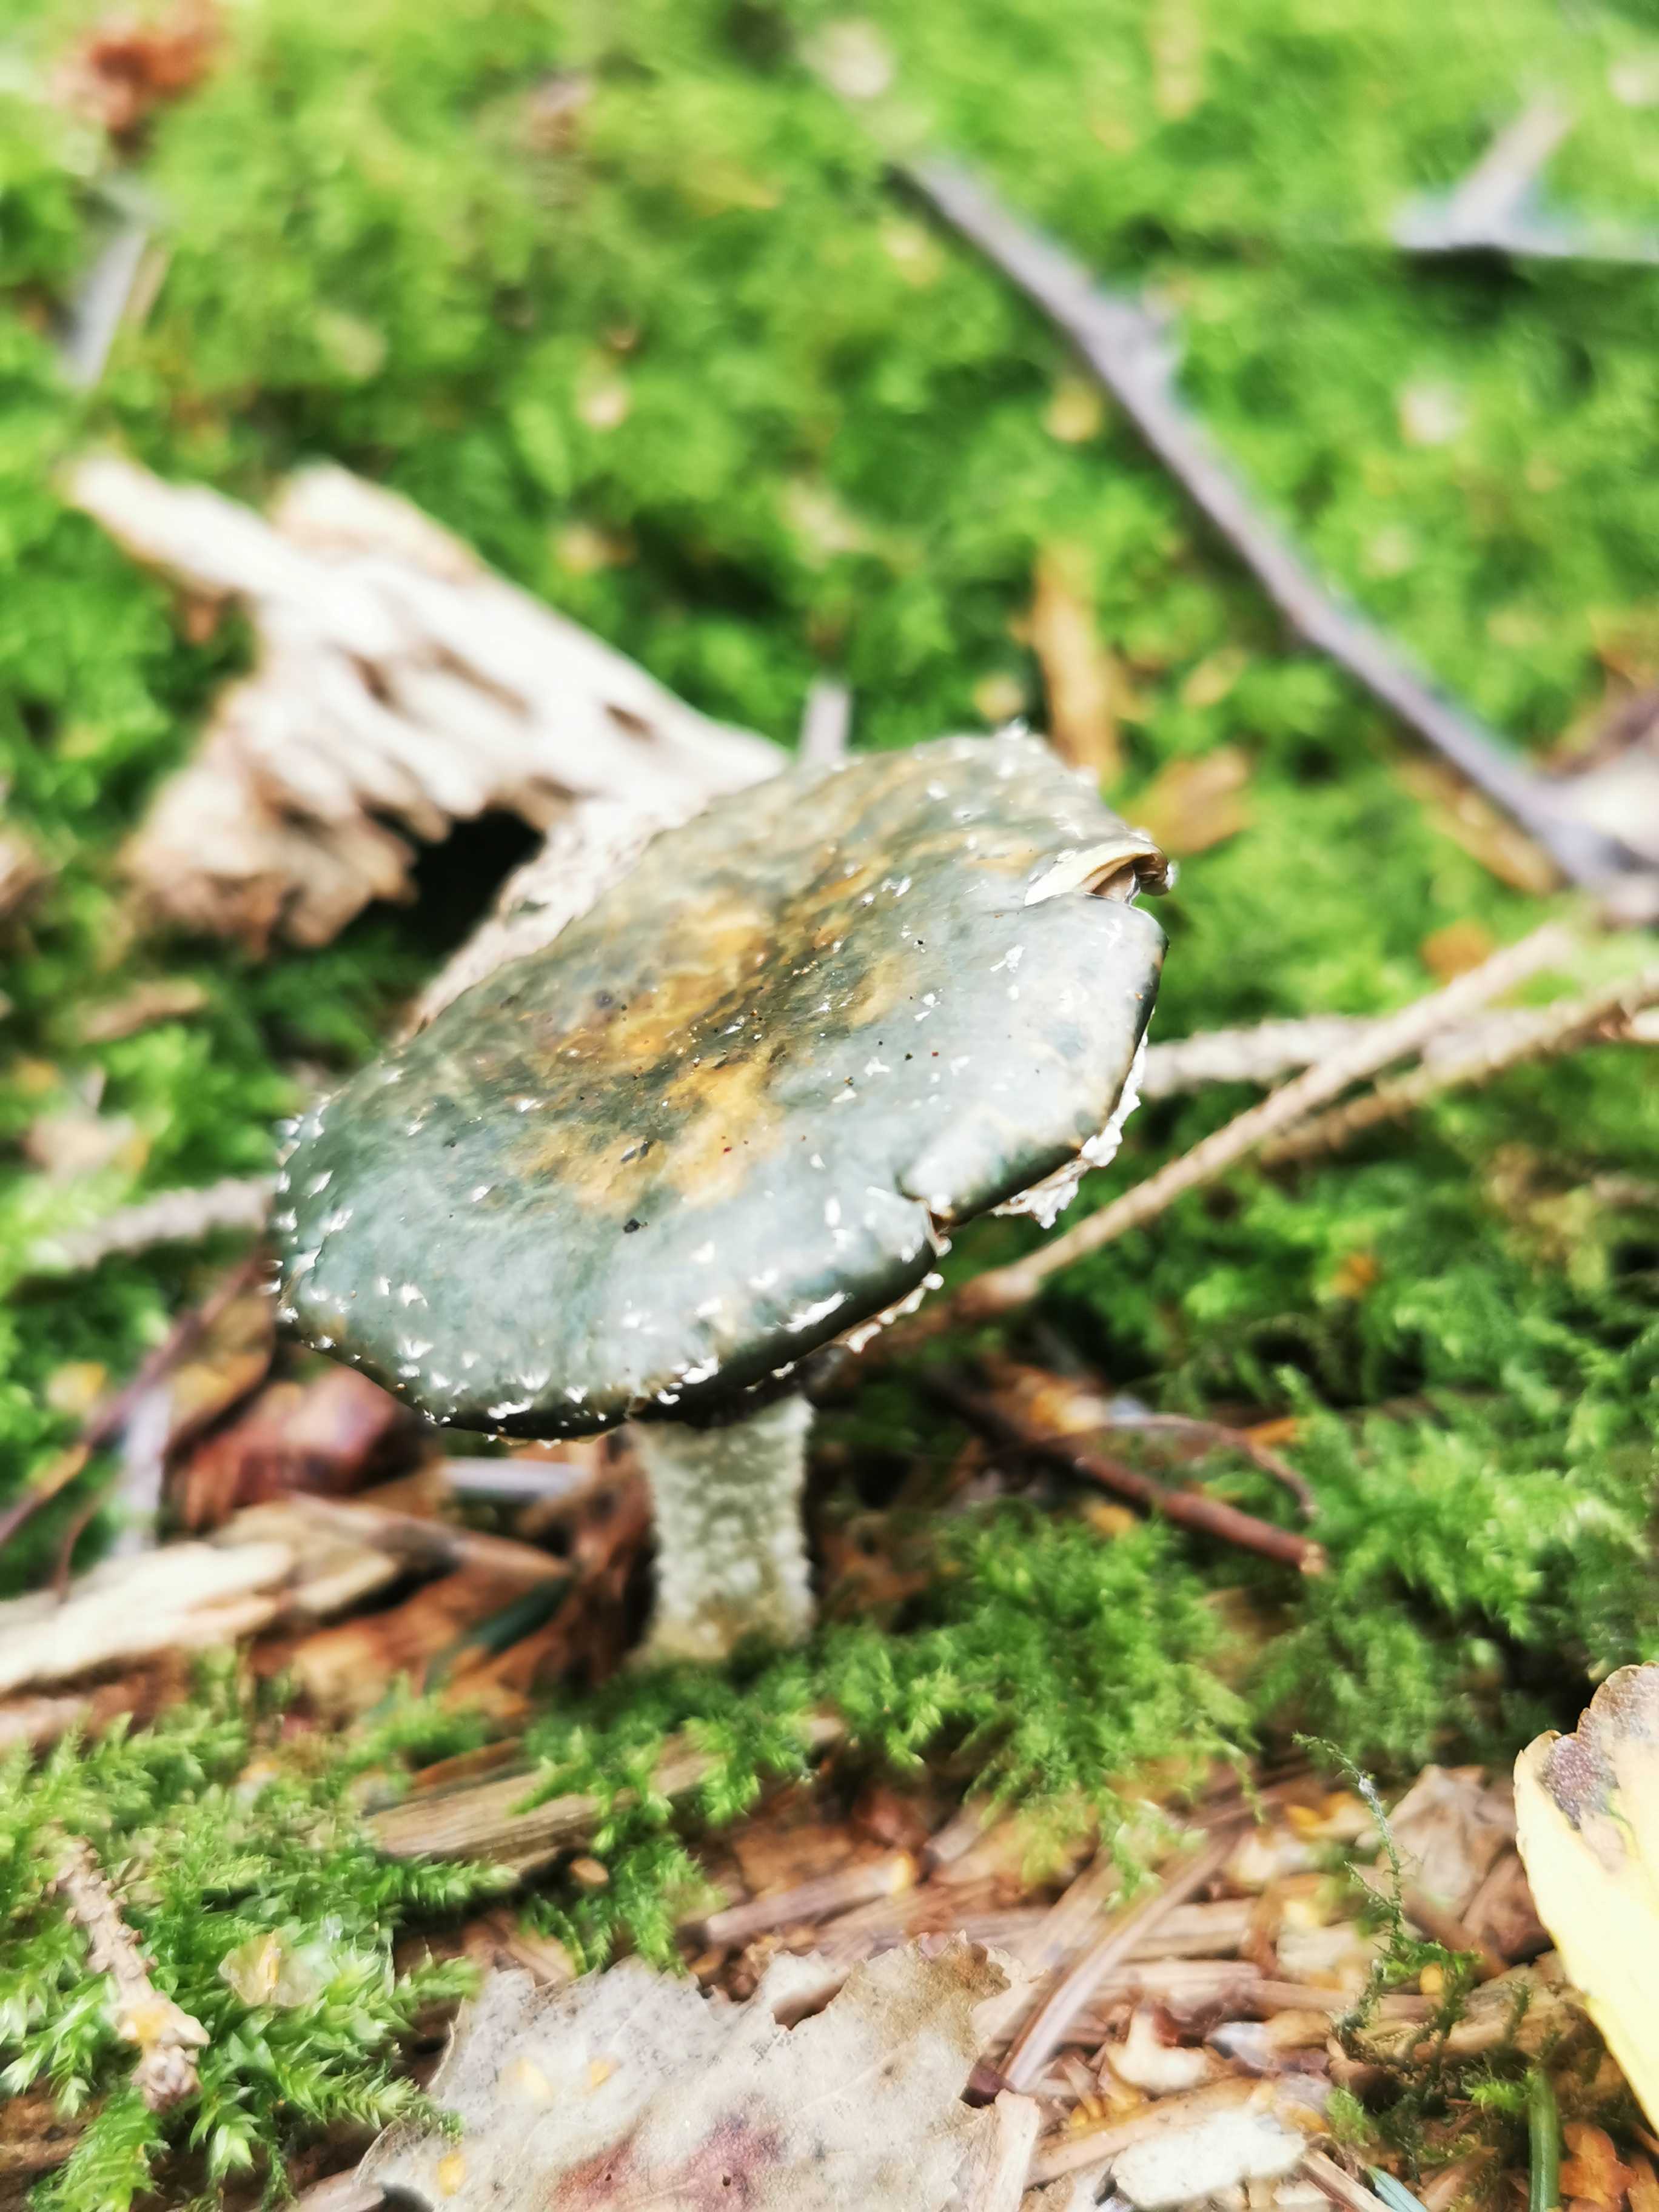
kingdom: Fungi
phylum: Basidiomycota
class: Agaricomycetes
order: Agaricales
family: Strophariaceae
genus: Stropharia
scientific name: Stropharia aeruginosa
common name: spanskgrøn bredblad
